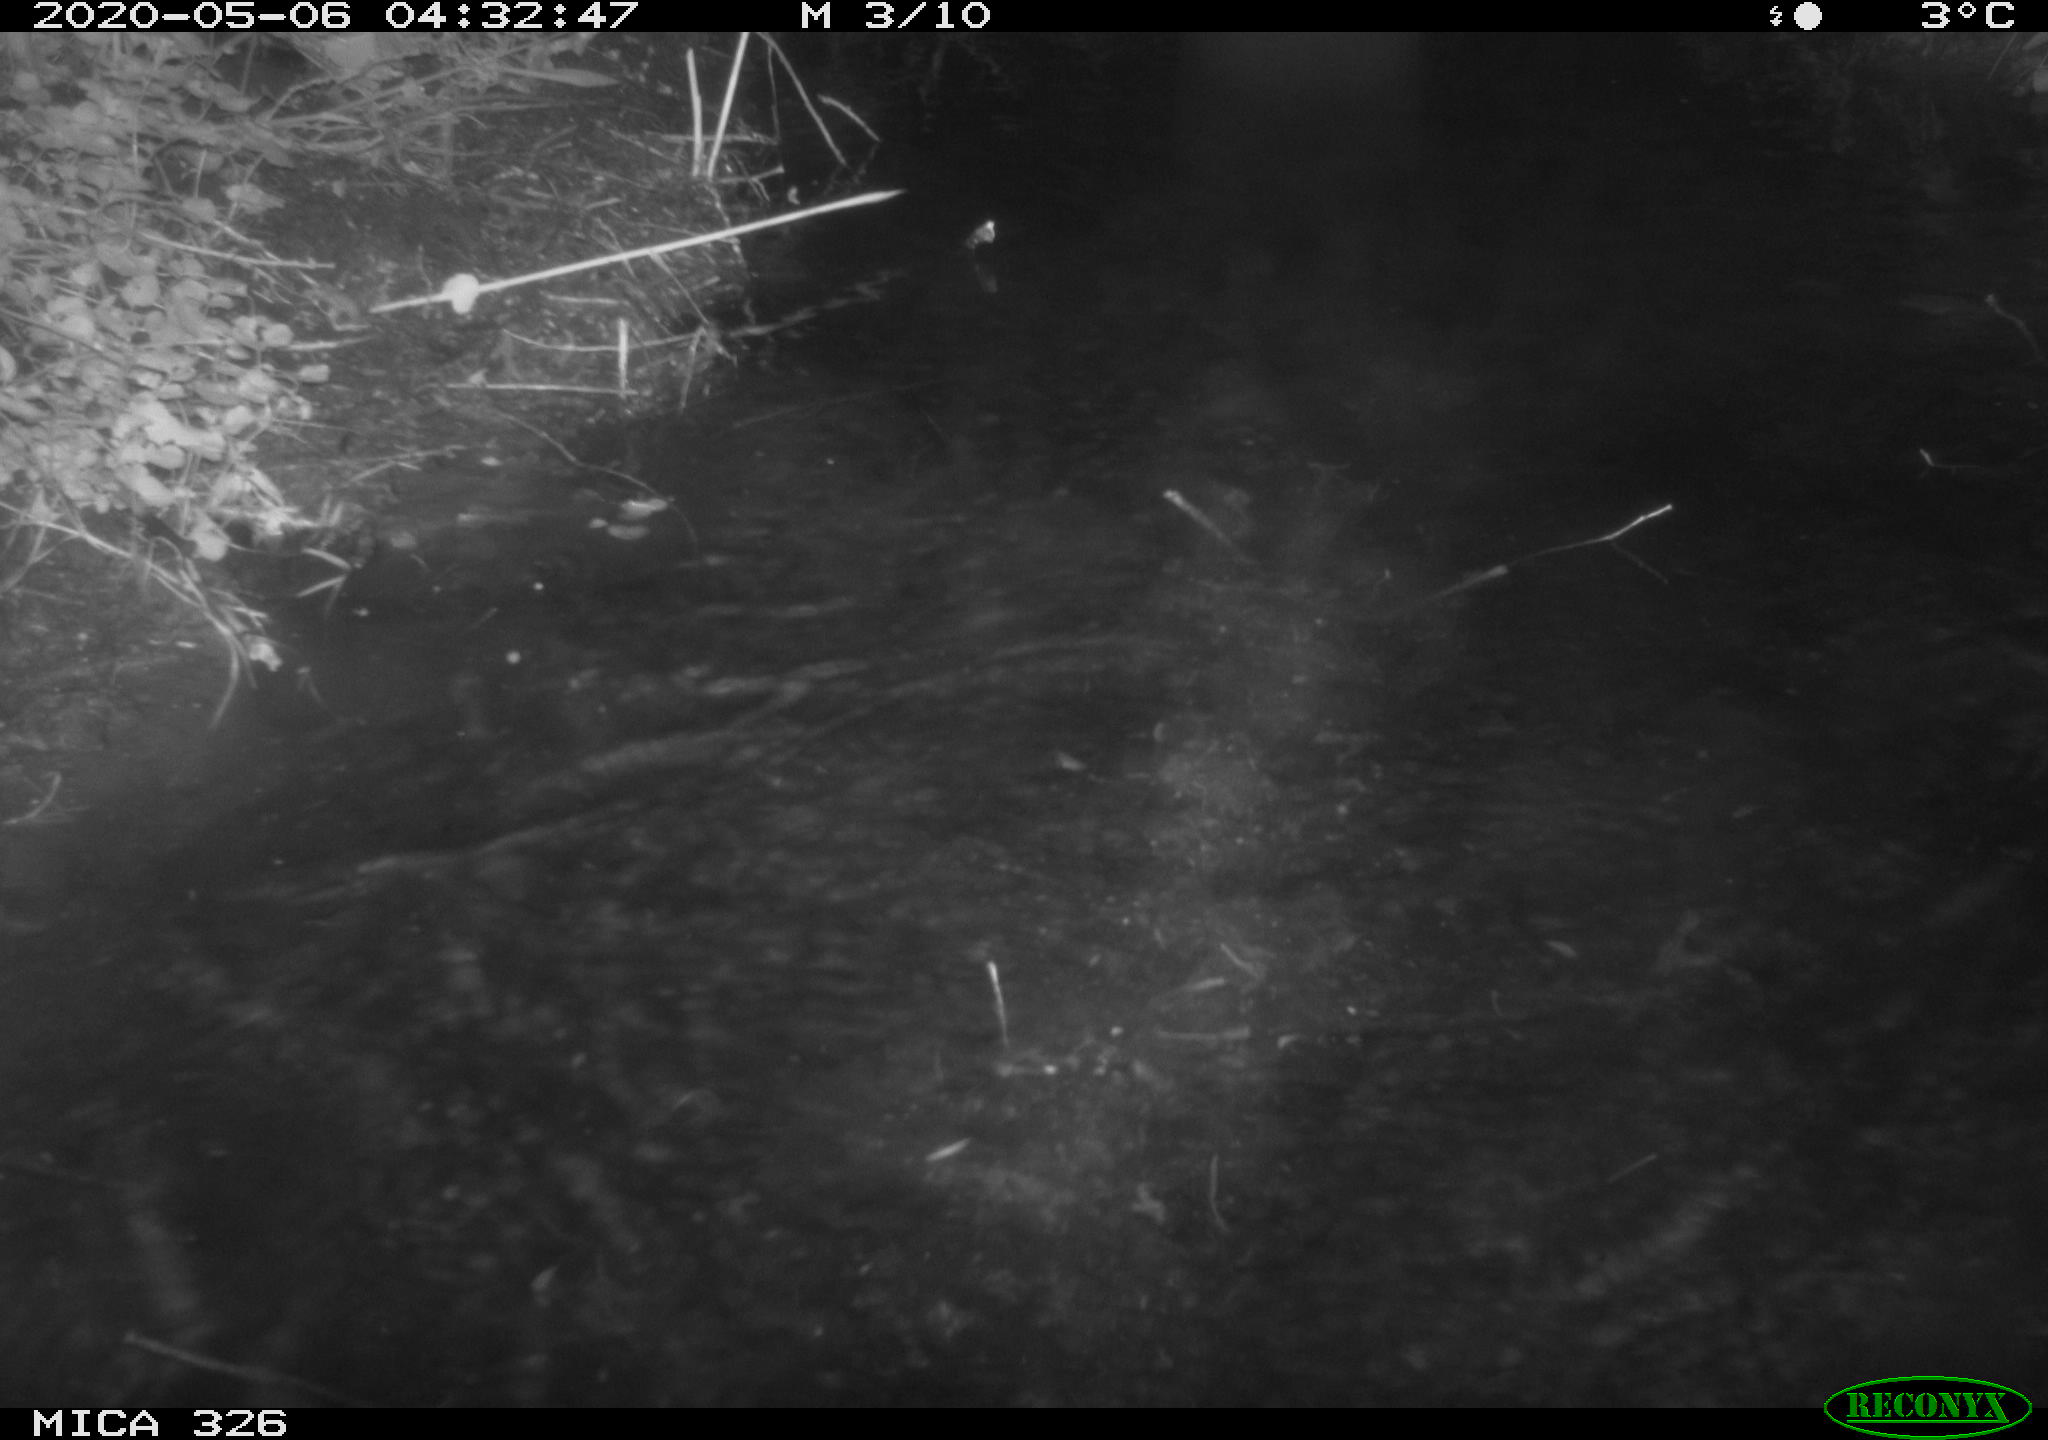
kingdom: Animalia
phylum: Chordata
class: Mammalia
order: Rodentia
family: Myocastoridae
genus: Myocastor
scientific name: Myocastor coypus
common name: Coypu
